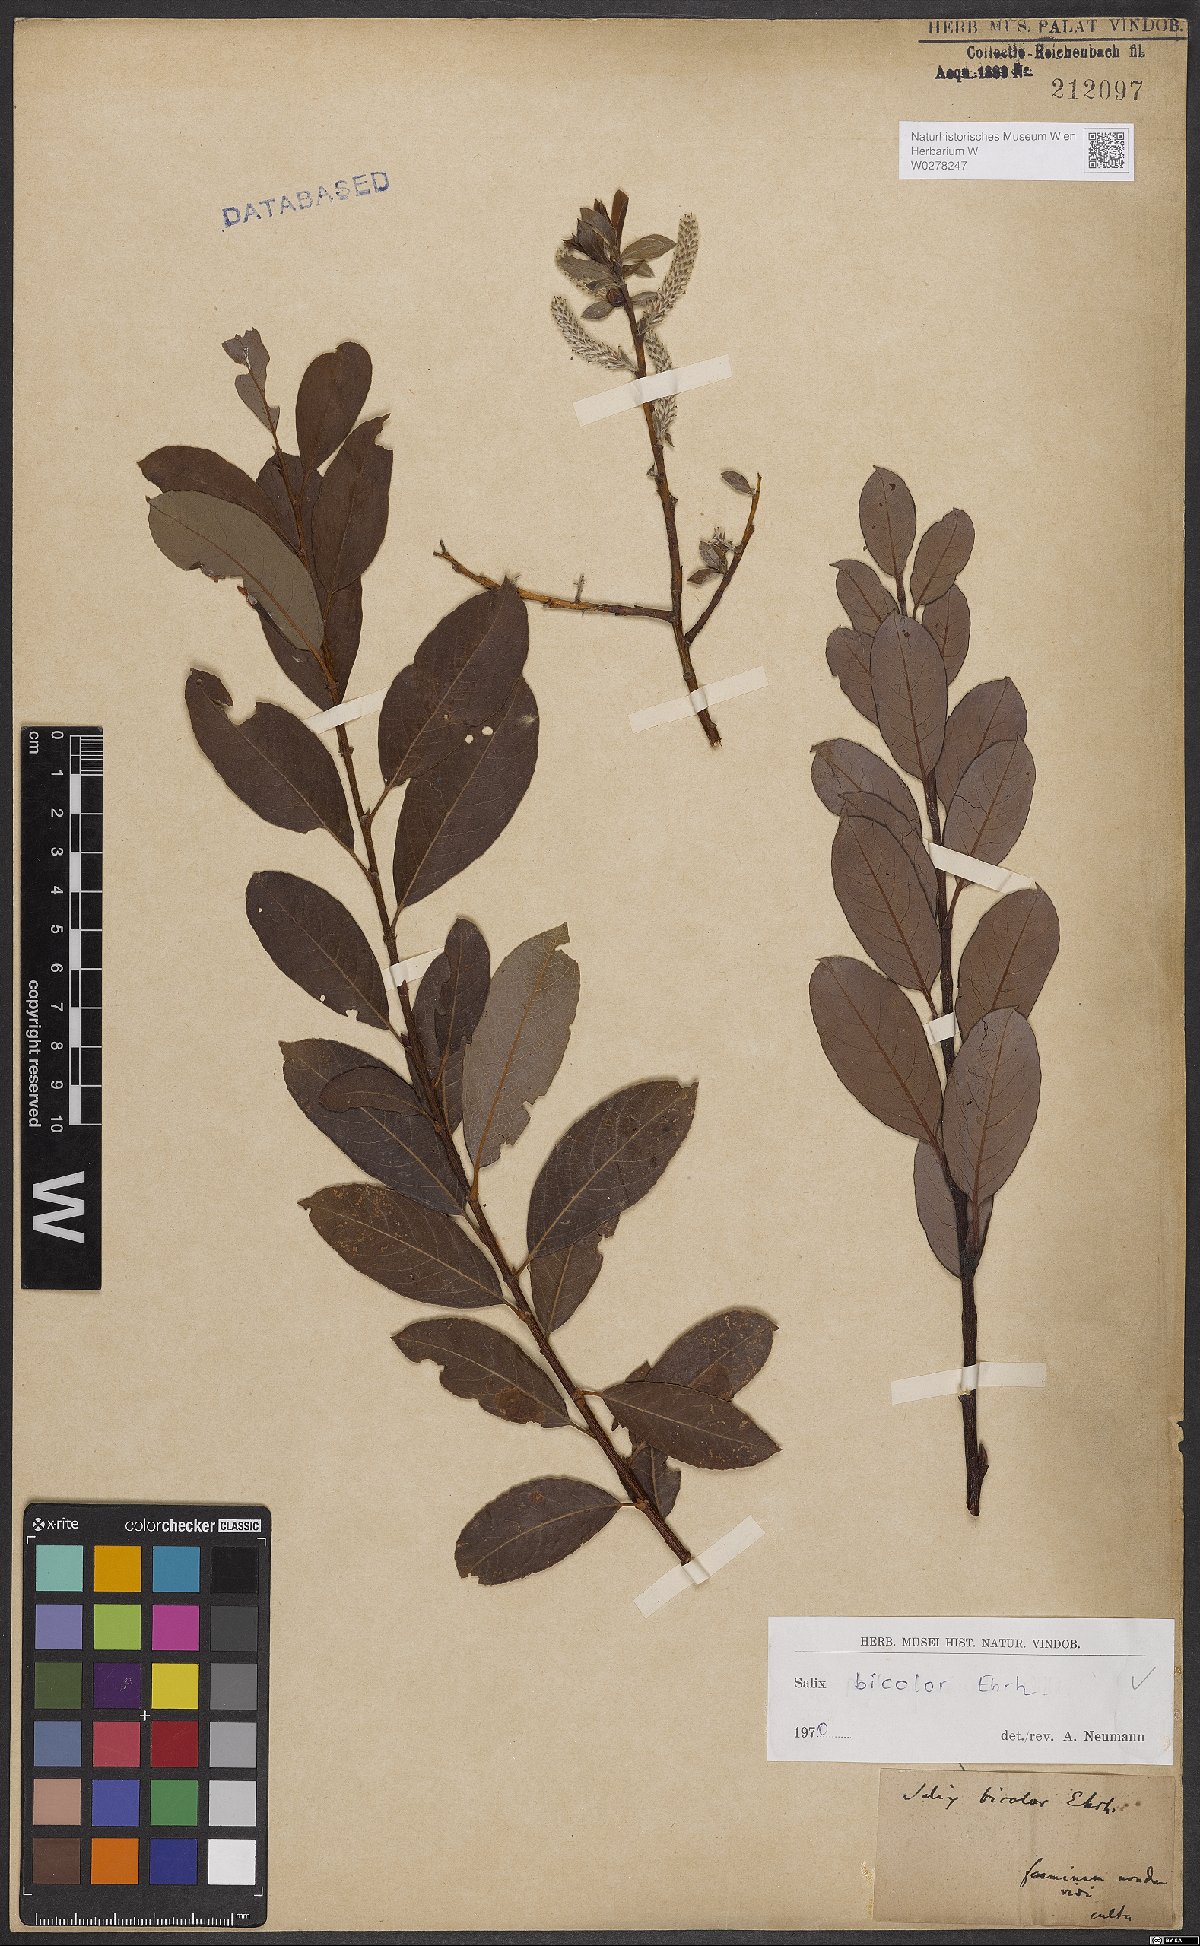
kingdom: Plantae
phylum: Tracheophyta
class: Magnoliopsida
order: Malpighiales
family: Salicaceae
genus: Salix
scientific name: Salix bicolor
